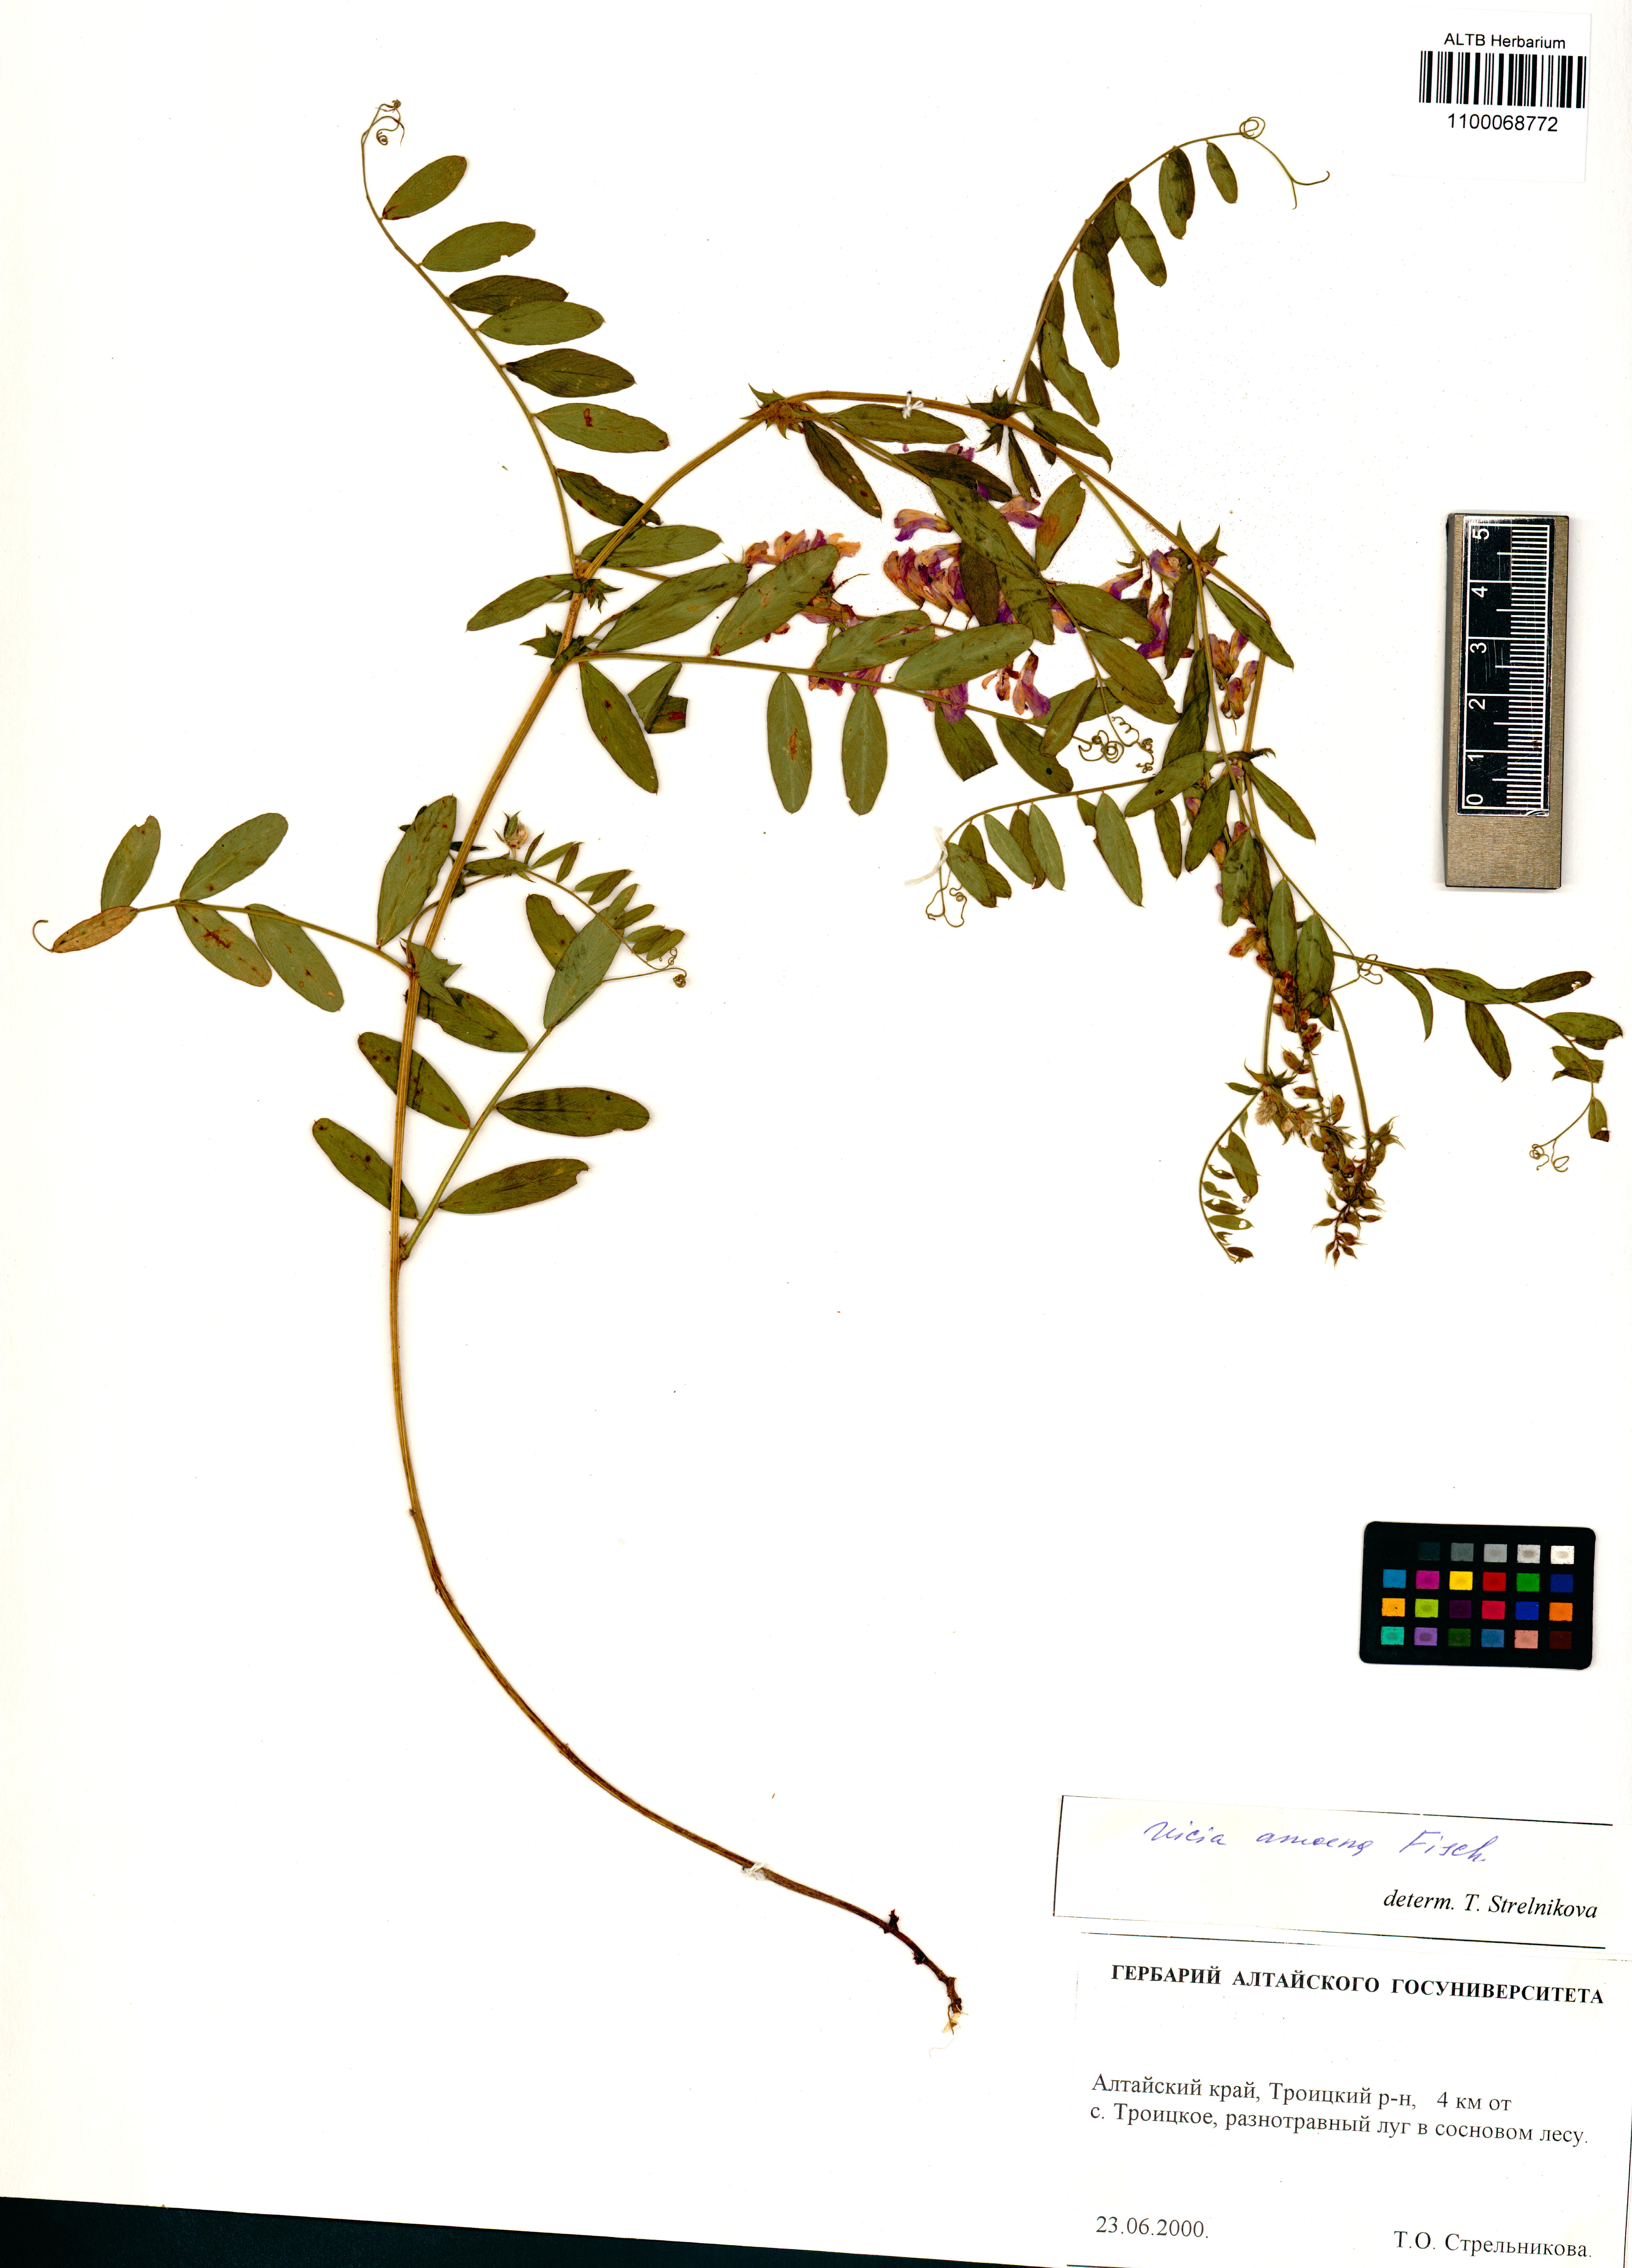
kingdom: Plantae
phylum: Tracheophyta
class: Magnoliopsida
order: Fabales
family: Fabaceae
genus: Vicia
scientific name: Vicia amoena
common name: Cheder ebs
